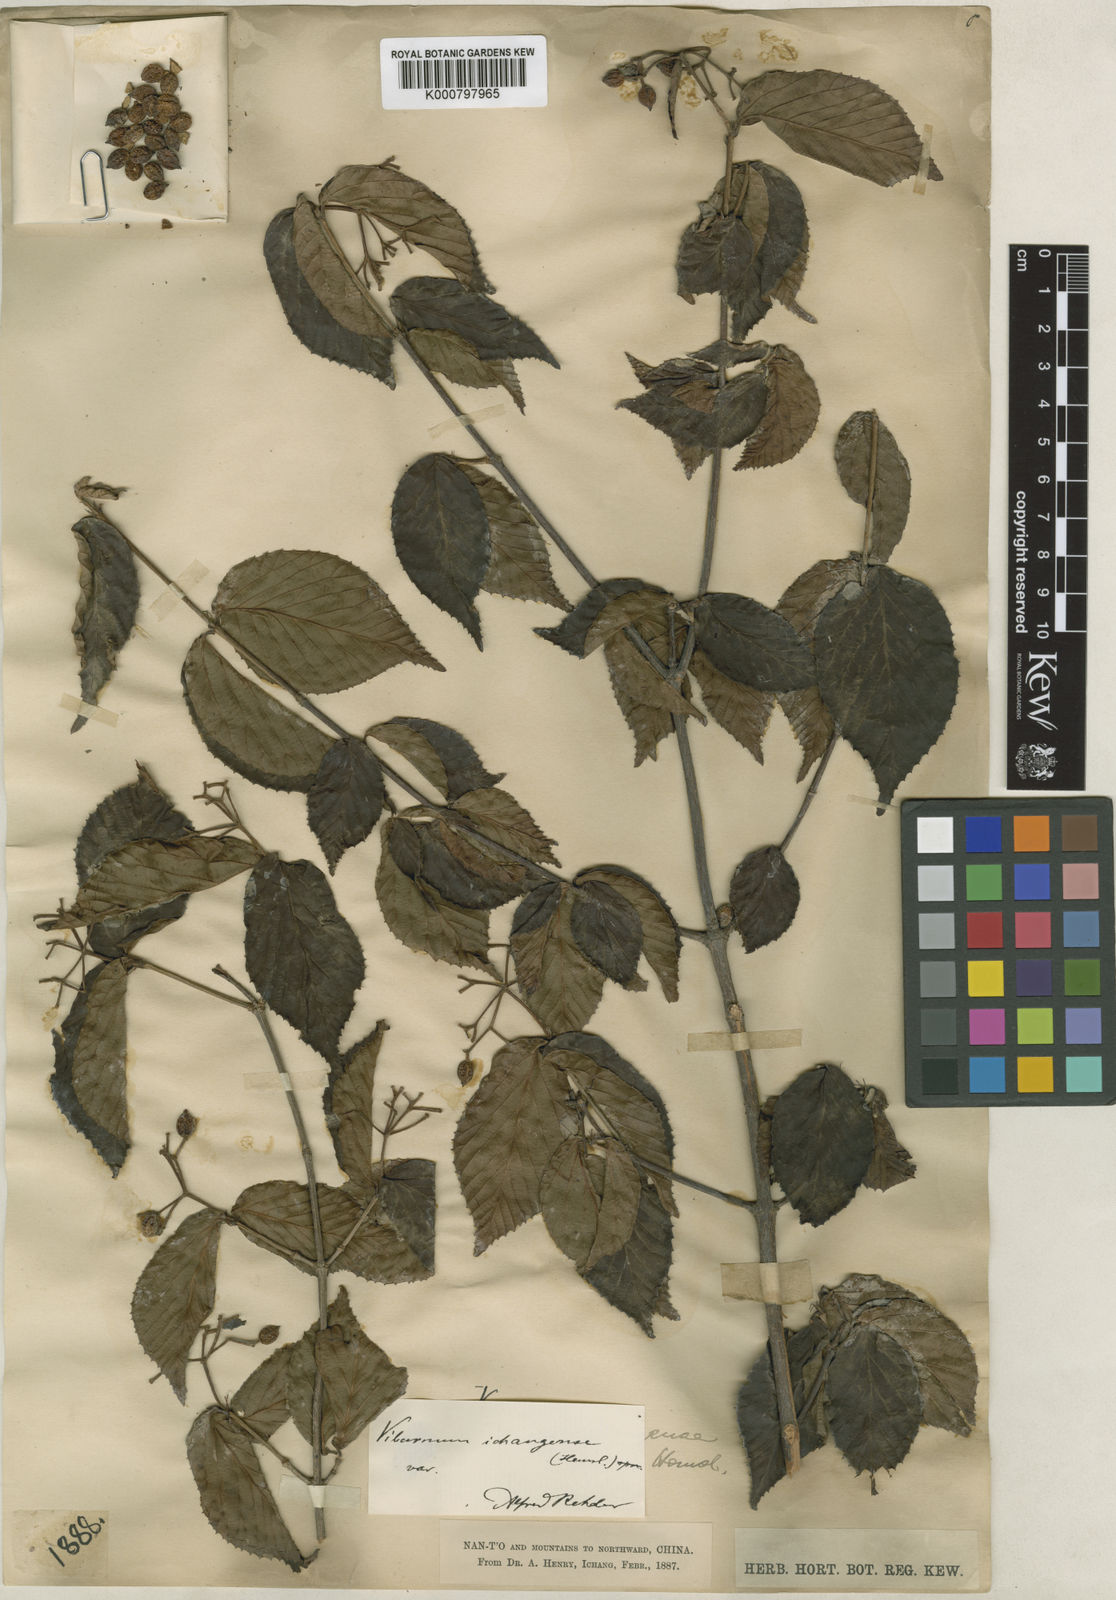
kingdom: Plantae
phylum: Tracheophyta
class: Magnoliopsida
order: Dipsacales
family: Viburnaceae
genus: Viburnum
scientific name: Viburnum erosum
